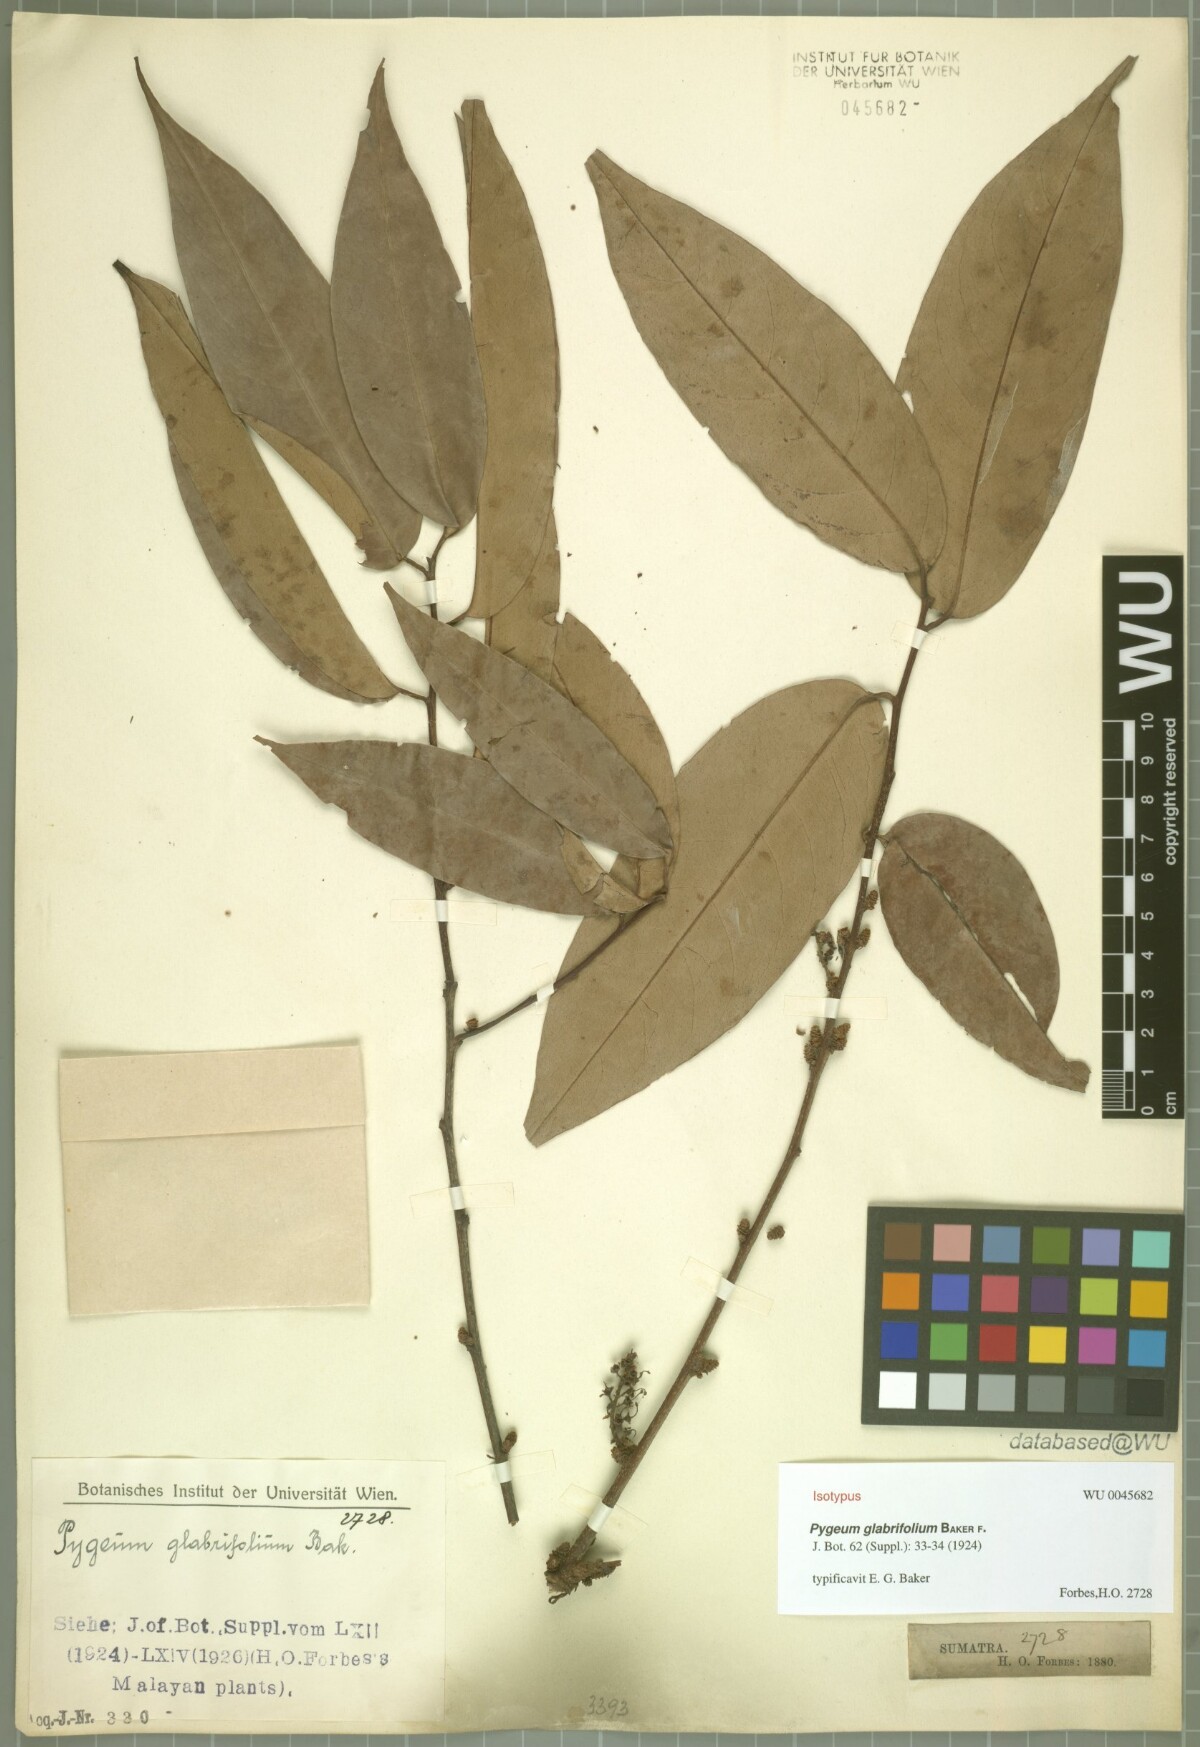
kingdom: Plantae
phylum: Tracheophyta
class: Magnoliopsida
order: Rosales
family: Rosaceae
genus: Prunus
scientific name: Prunus
